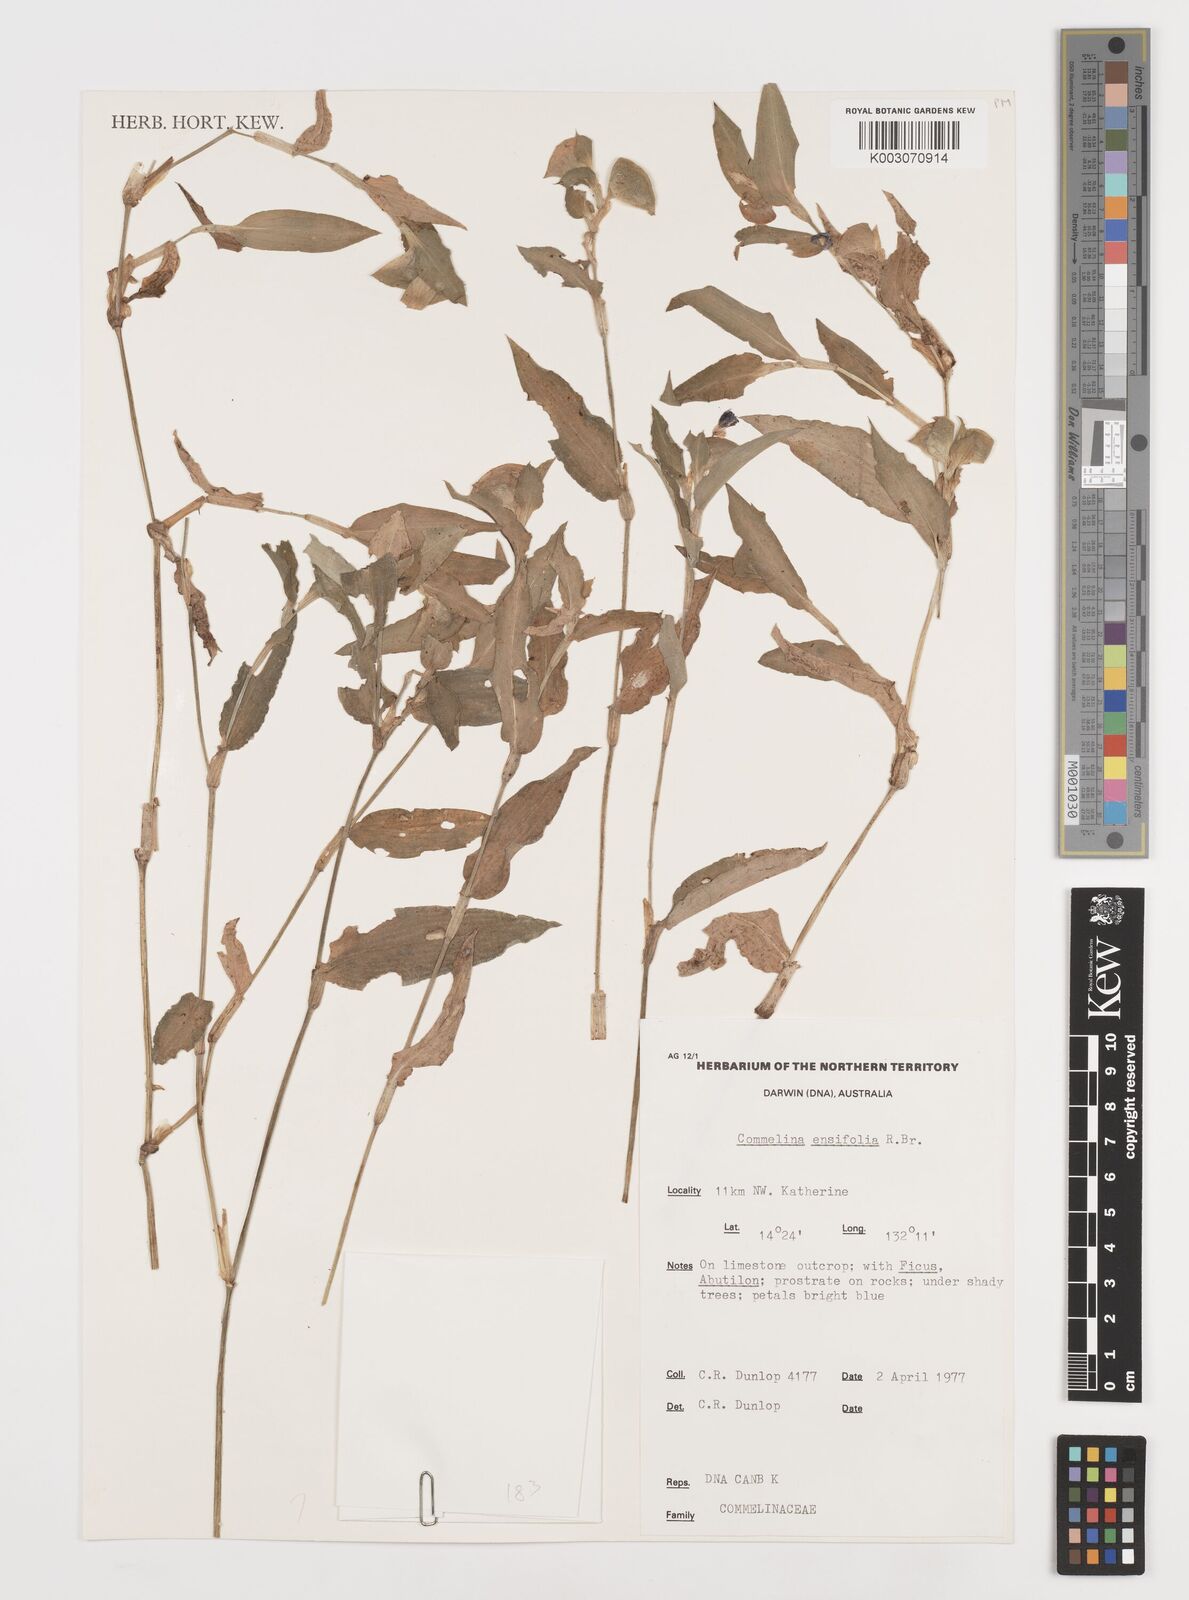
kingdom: Plantae
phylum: Tracheophyta
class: Liliopsida
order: Commelinales
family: Commelinaceae
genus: Commelina
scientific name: Commelina ensifolia
